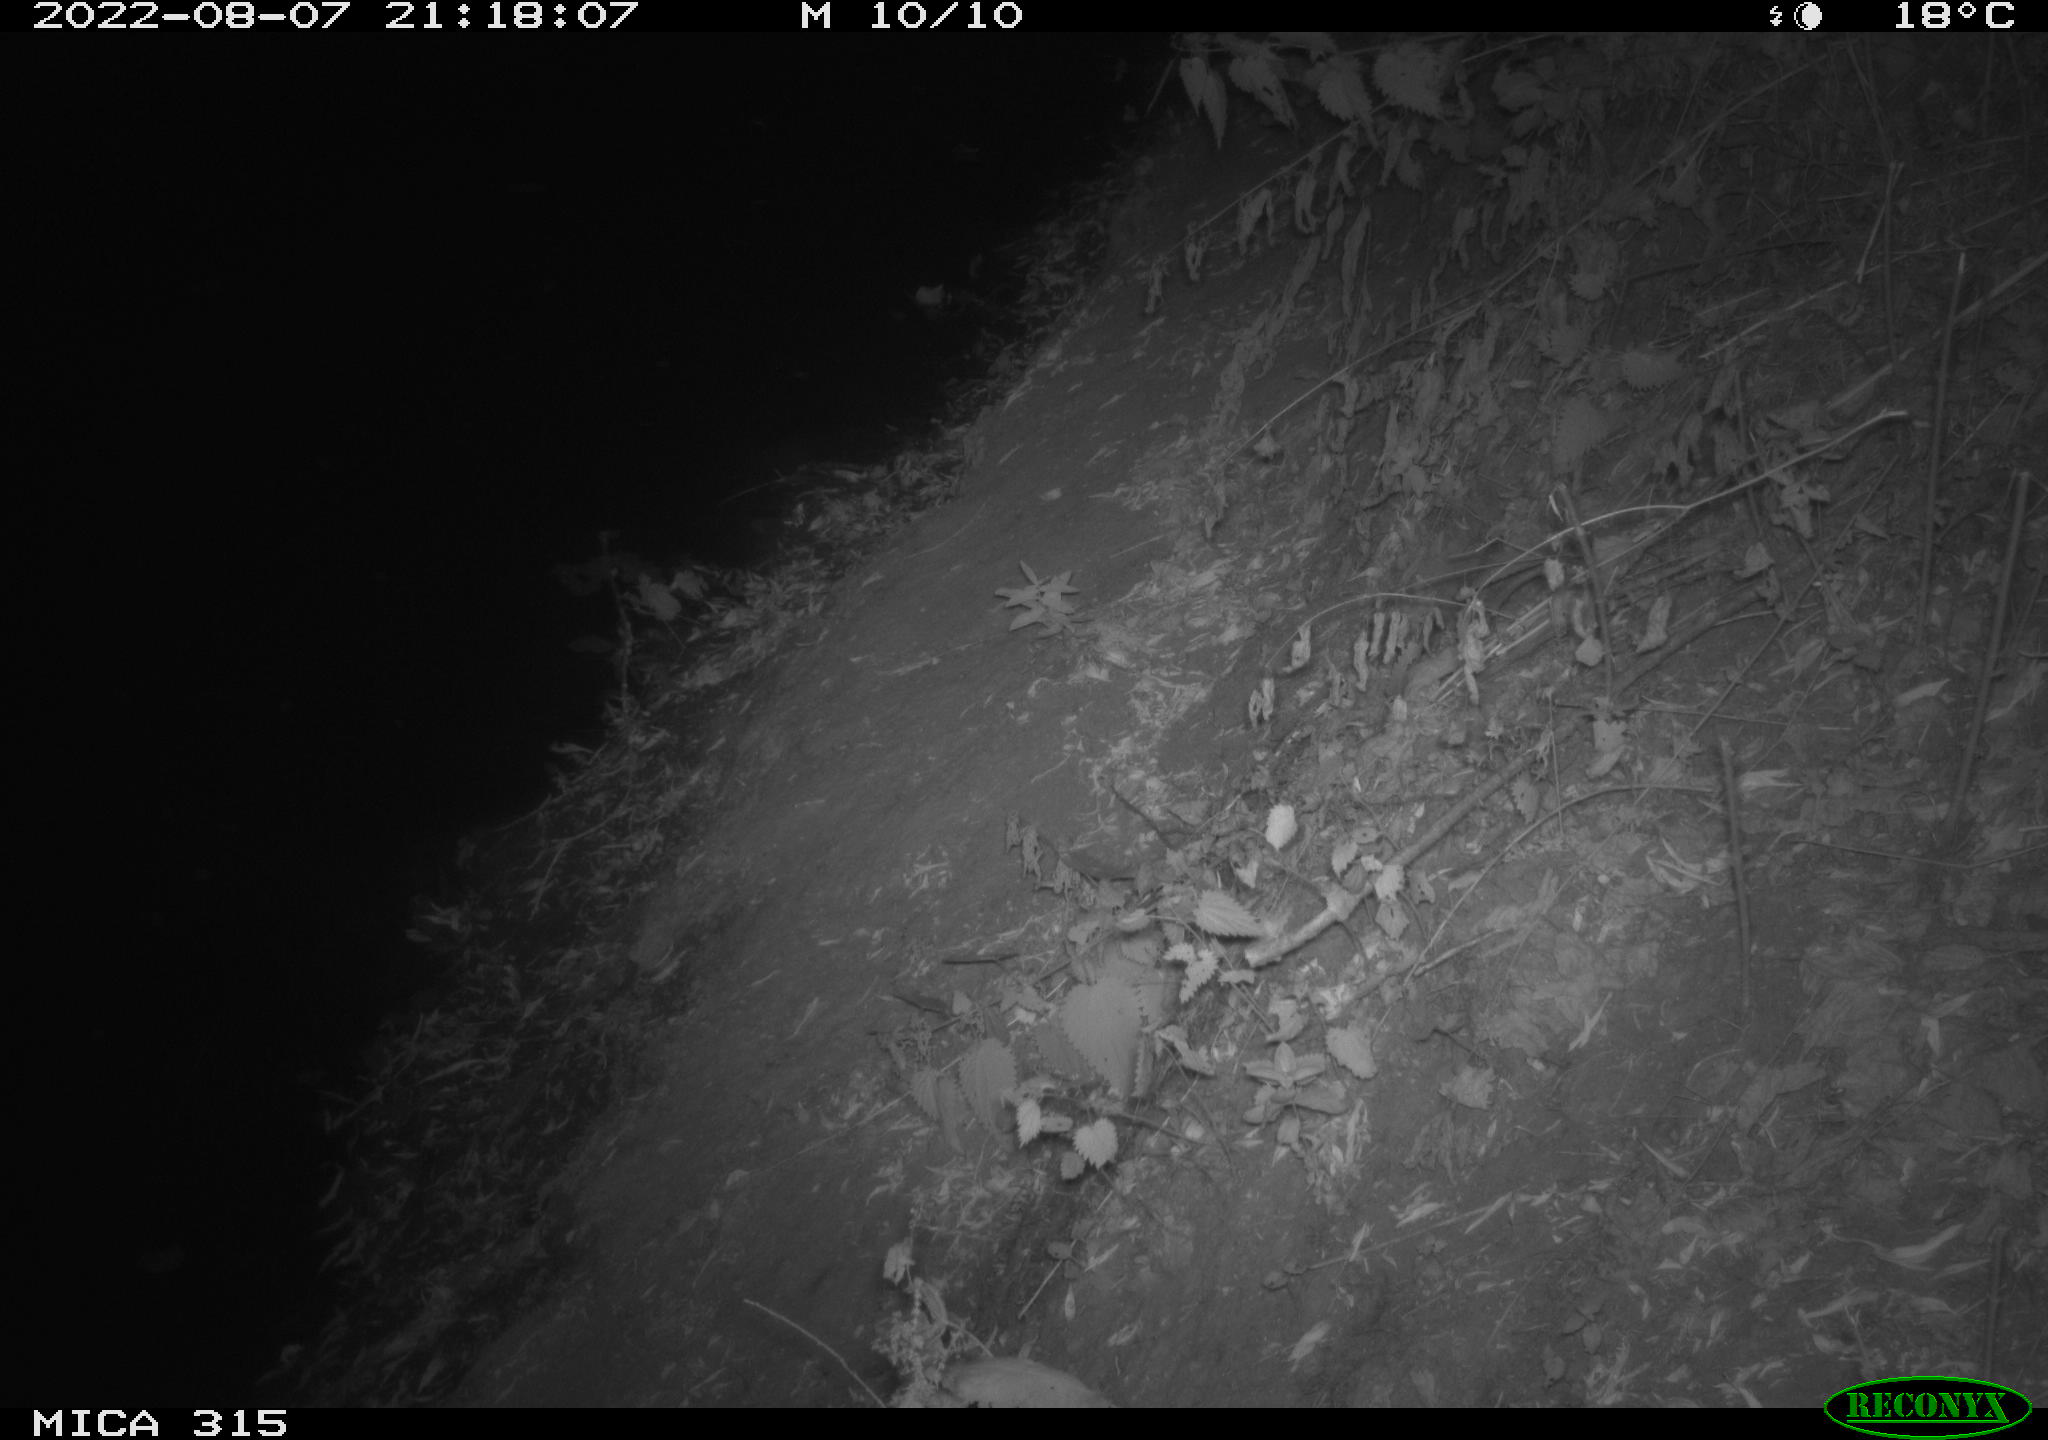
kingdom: Animalia
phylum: Chordata
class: Mammalia
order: Carnivora
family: Canidae
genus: Vulpes
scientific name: Vulpes vulpes
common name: Red fox
